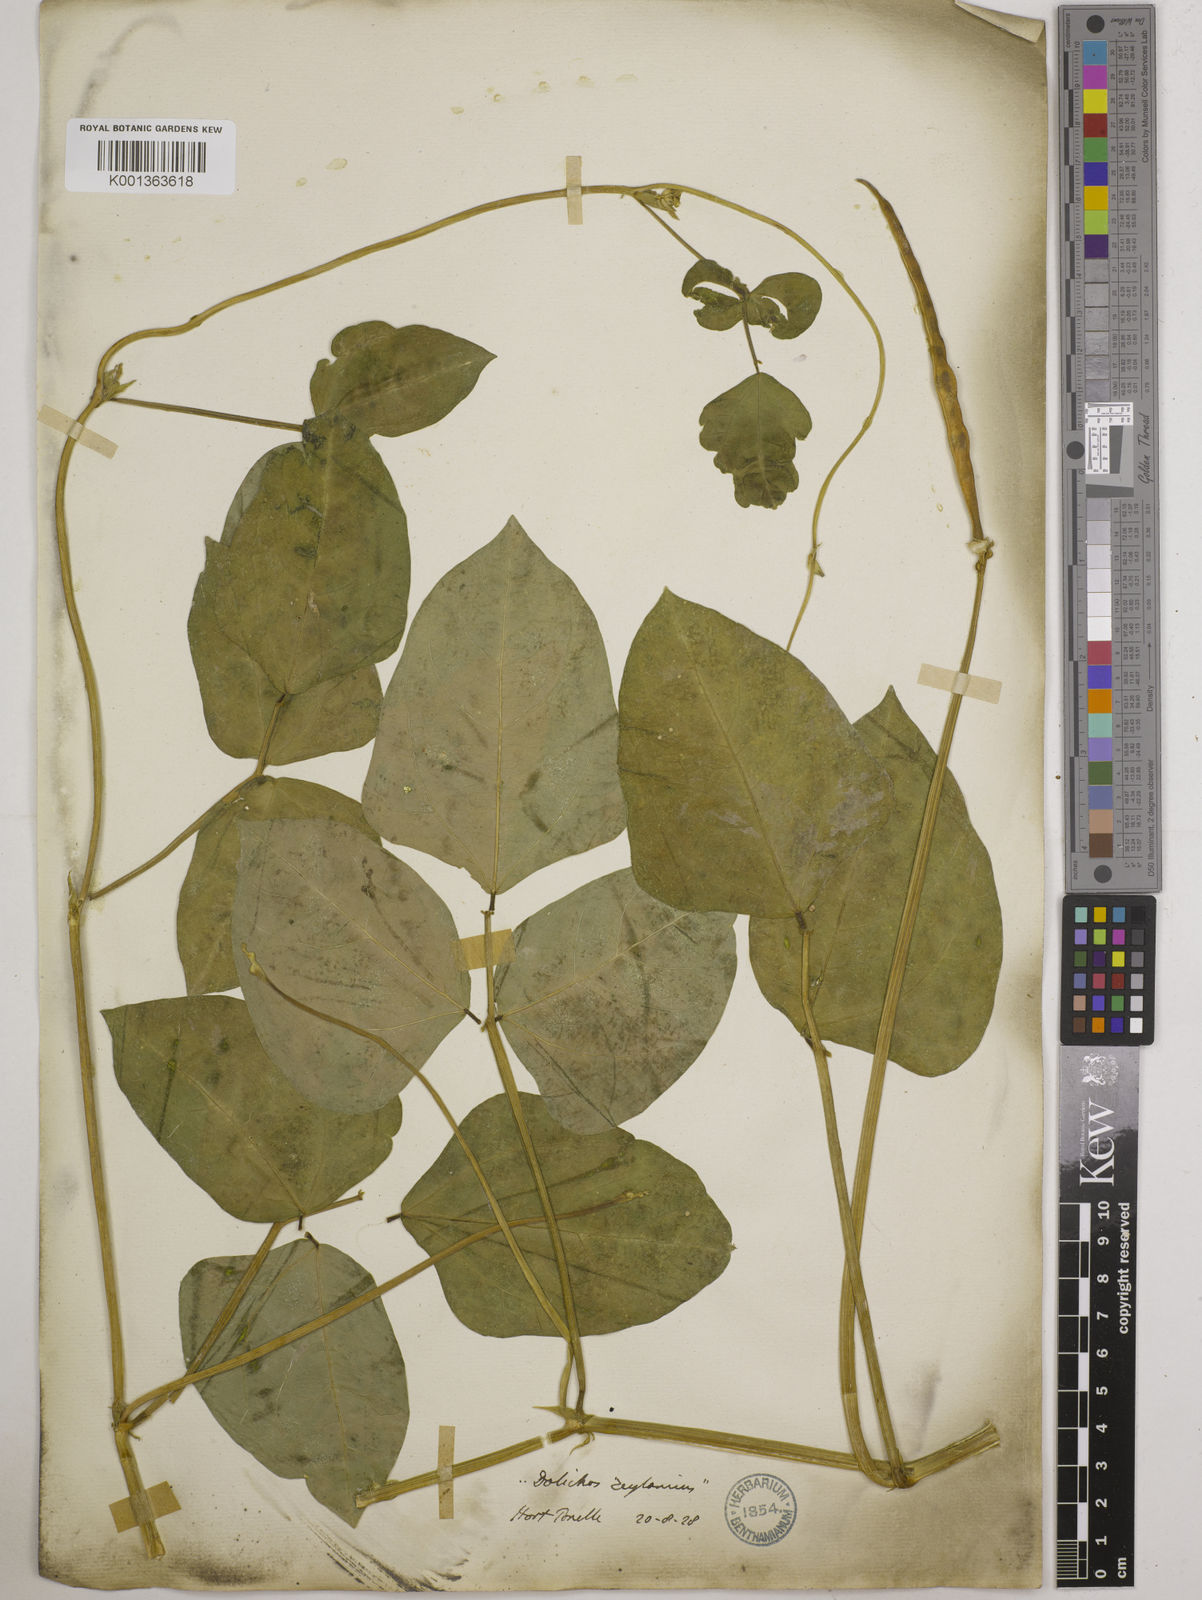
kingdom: Plantae
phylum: Tracheophyta
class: Magnoliopsida
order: Fabales
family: Fabaceae
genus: Vigna
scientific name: Vigna unguiculata
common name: Cowpea
